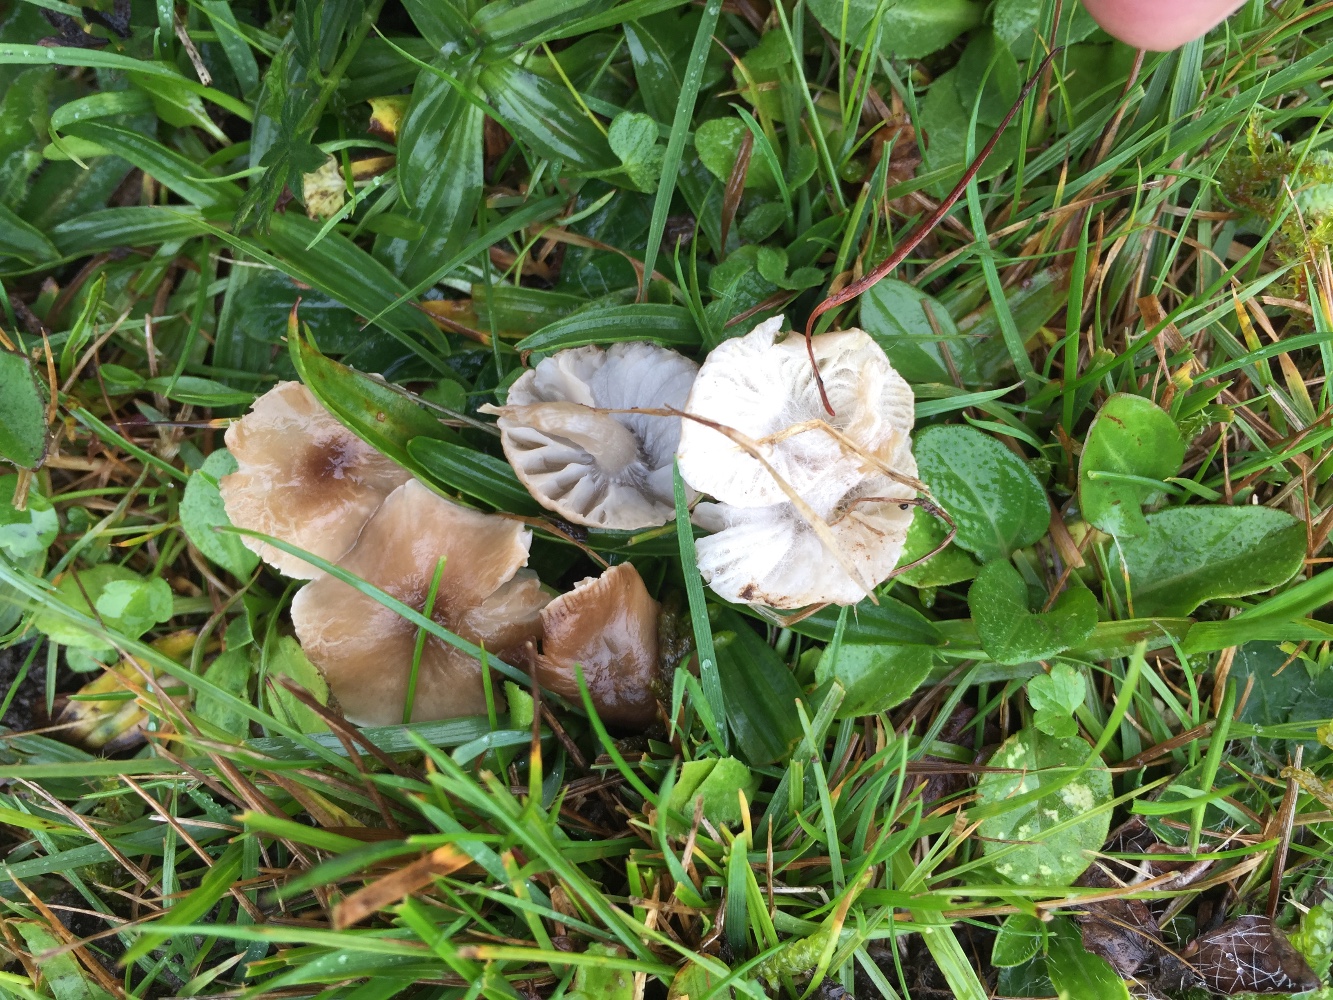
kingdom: Fungi
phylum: Basidiomycota
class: Agaricomycetes
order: Agaricales
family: Tricholomataceae
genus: Dermoloma
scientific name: Dermoloma cuneifolium
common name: eng-nonnehat
